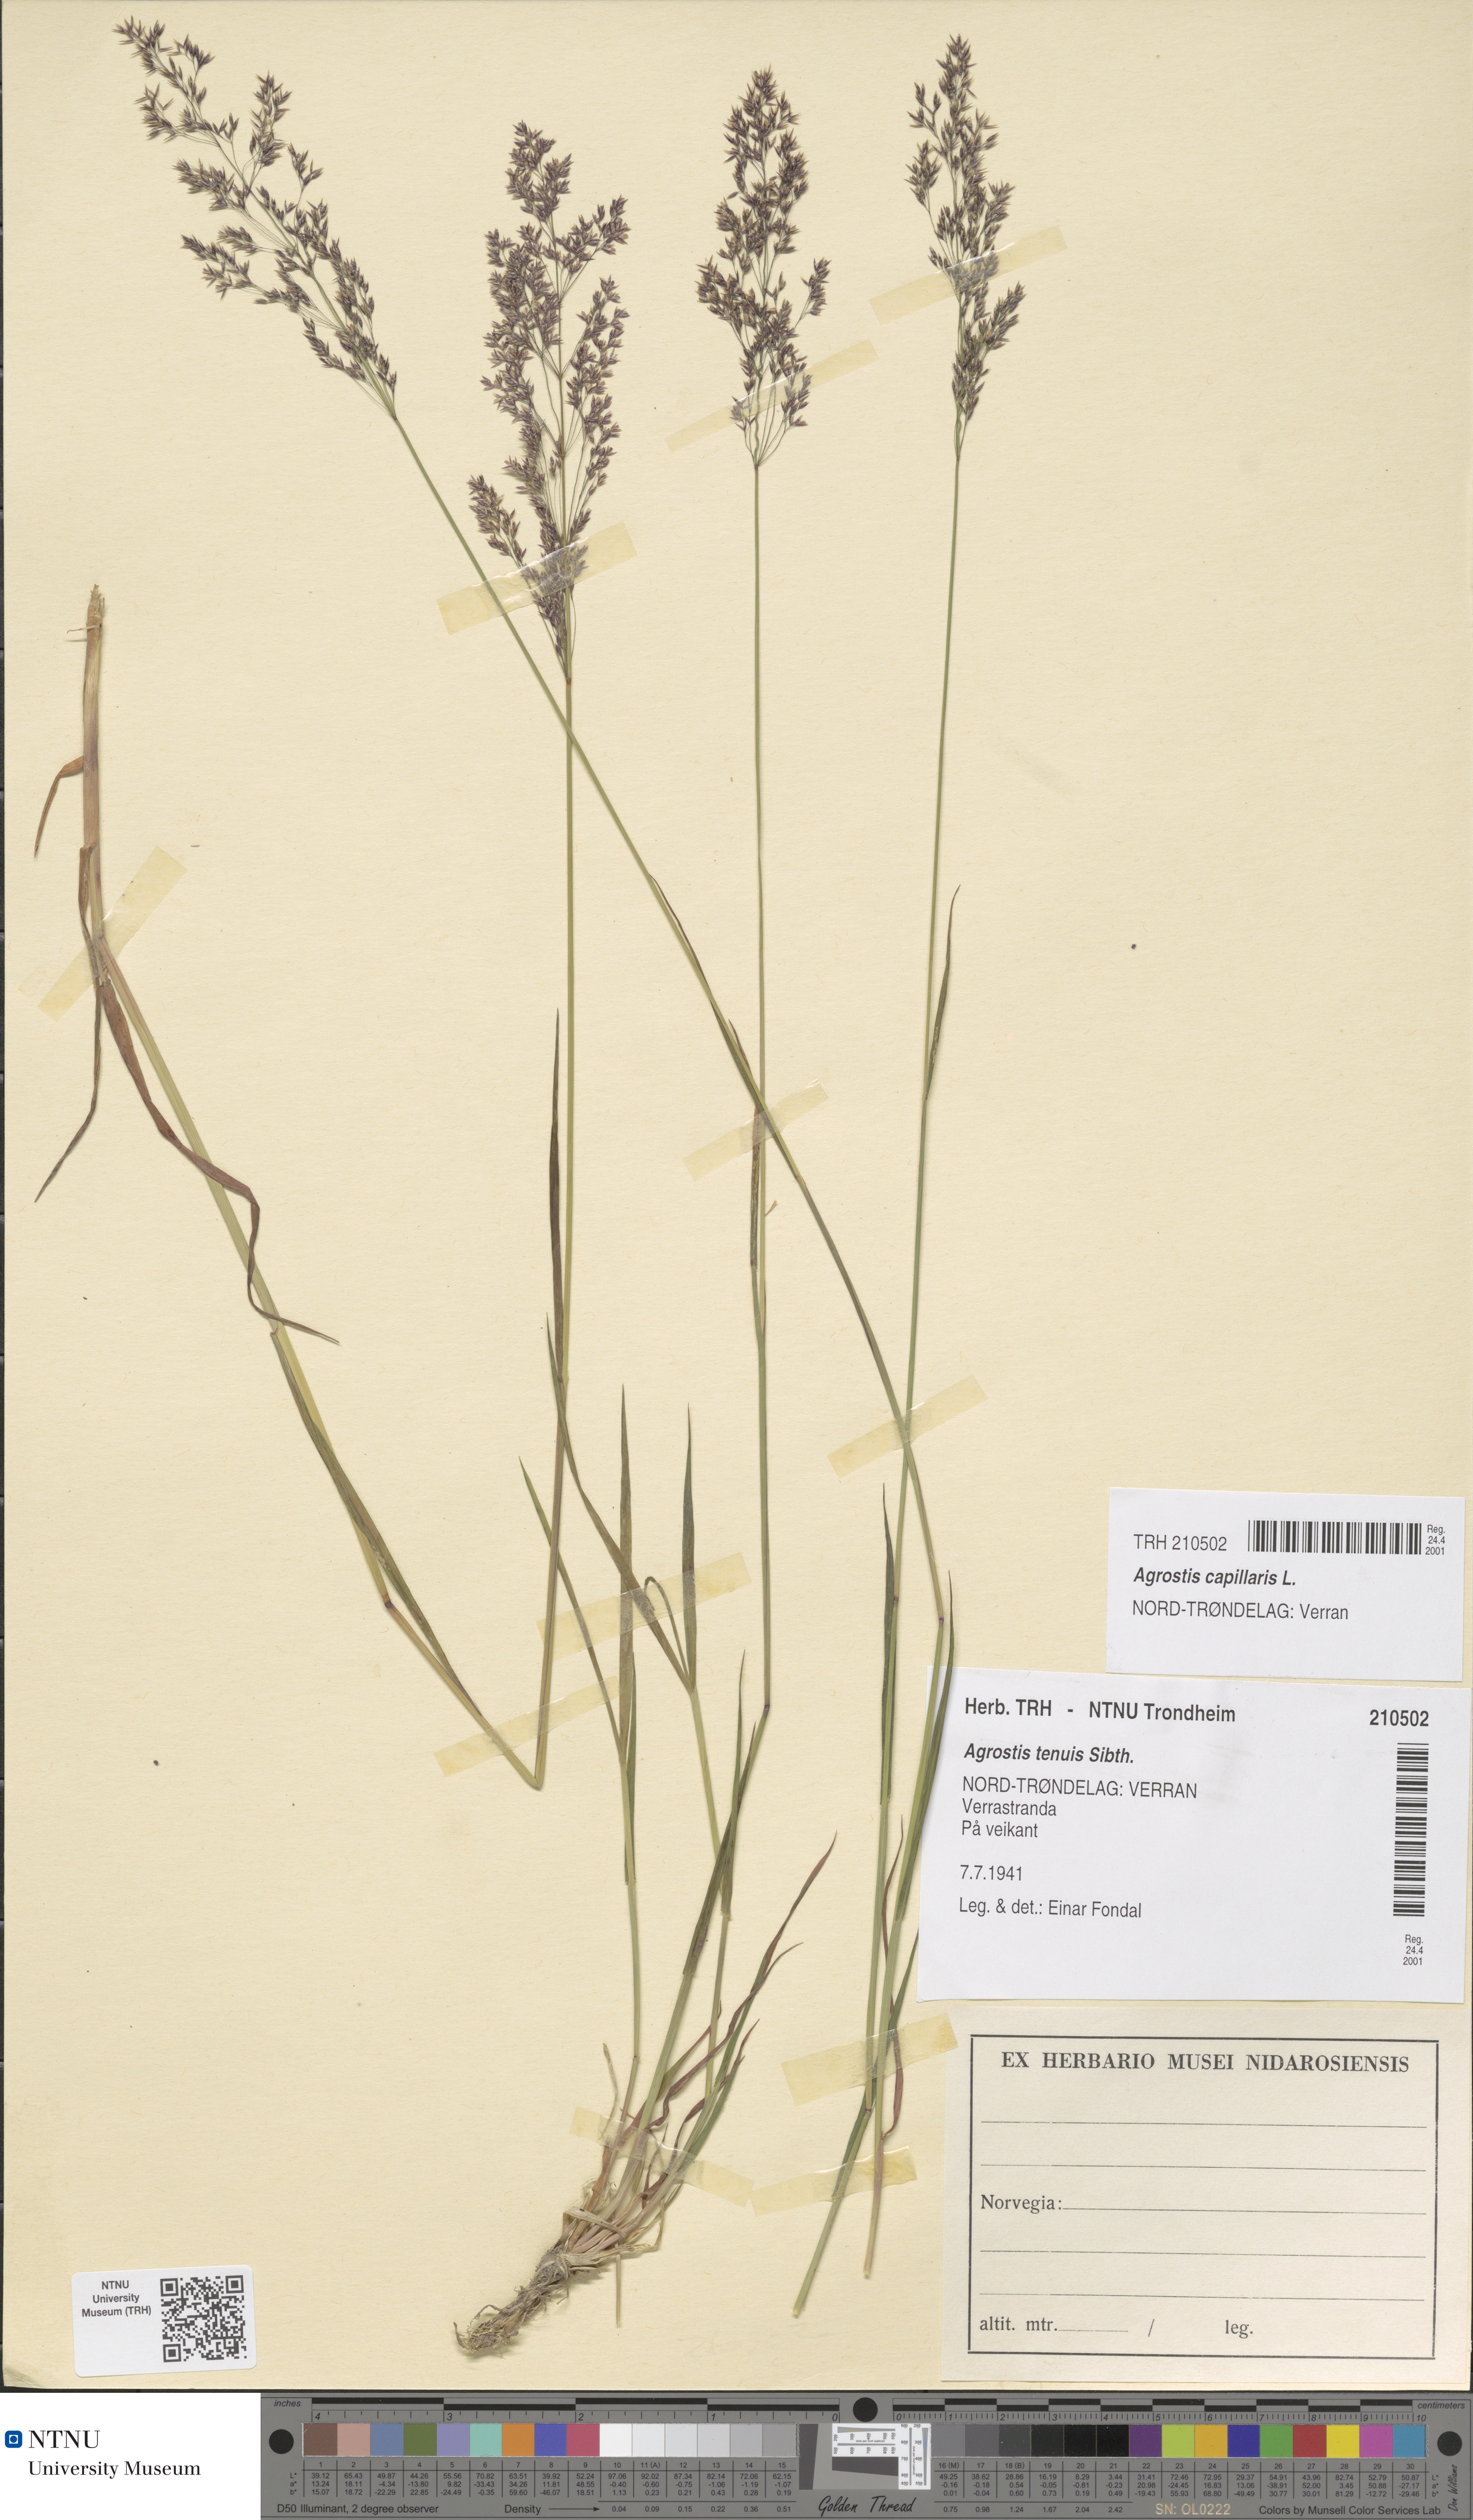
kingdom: Plantae
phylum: Tracheophyta
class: Liliopsida
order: Poales
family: Poaceae
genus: Agrostis
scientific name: Agrostis capillaris
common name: Colonial bentgrass
